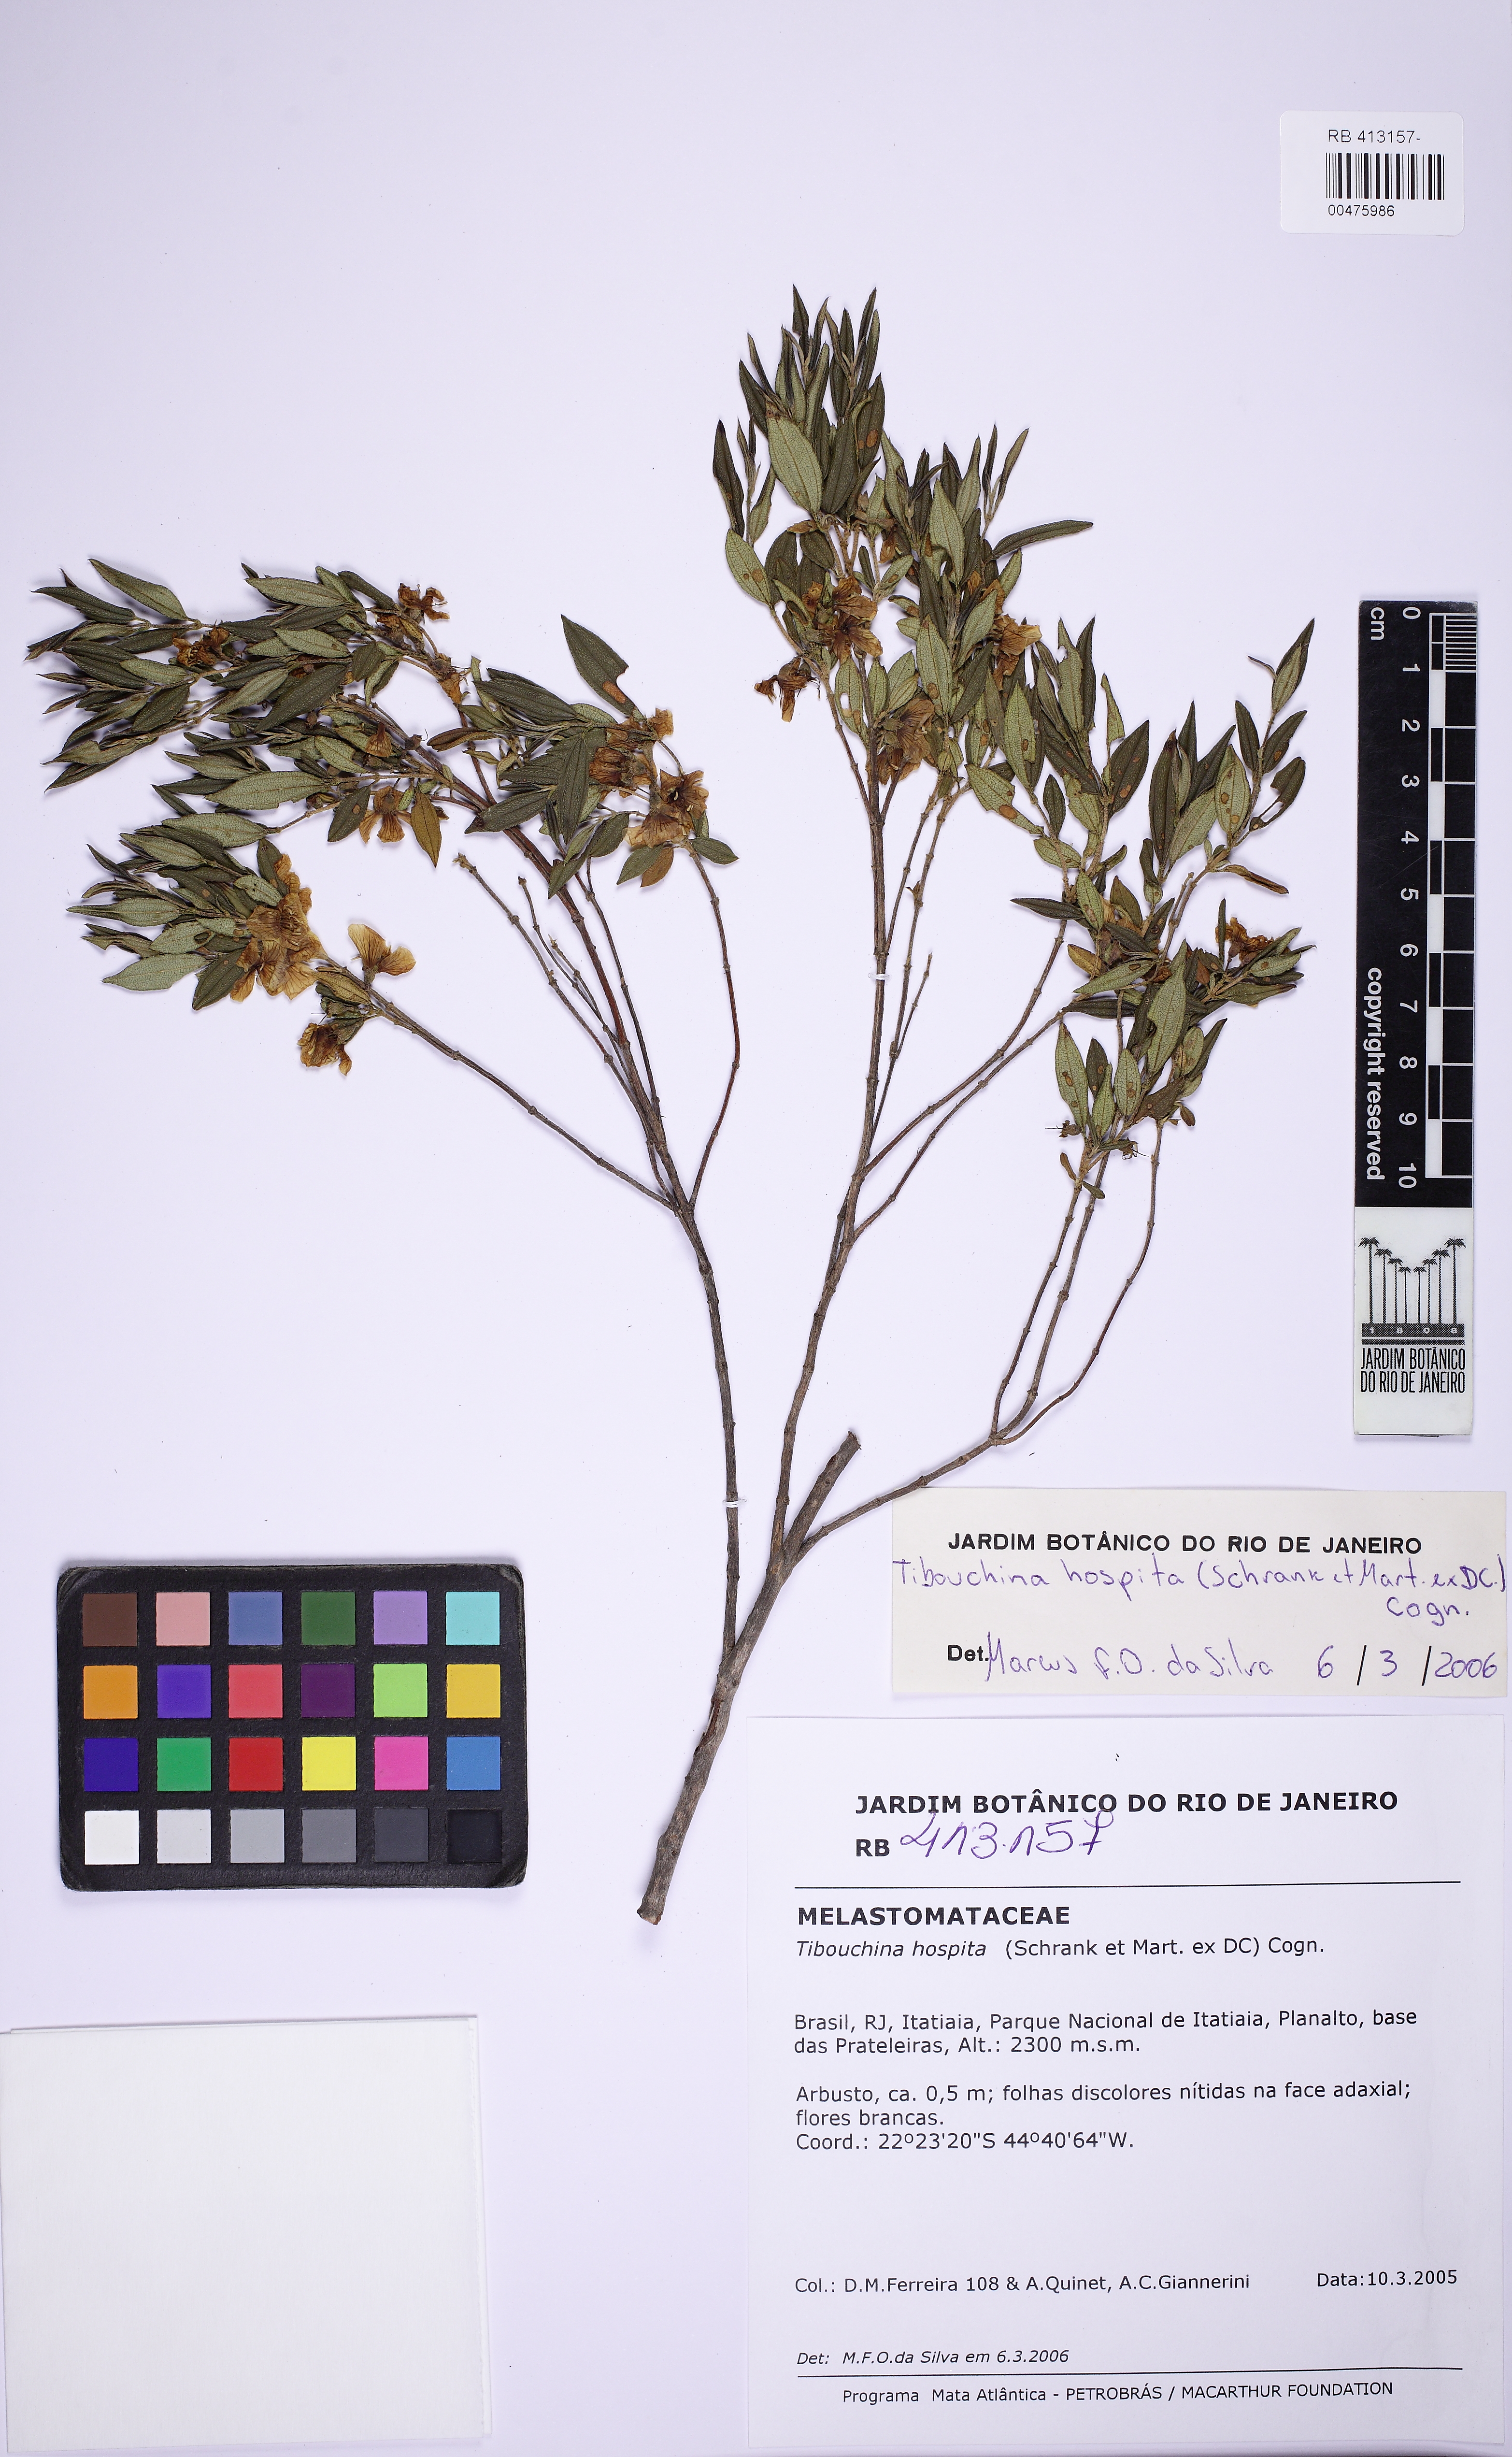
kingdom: Plantae
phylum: Tracheophyta
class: Magnoliopsida
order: Myrtales
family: Melastomataceae
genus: Pleroma
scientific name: Pleroma hospitum
